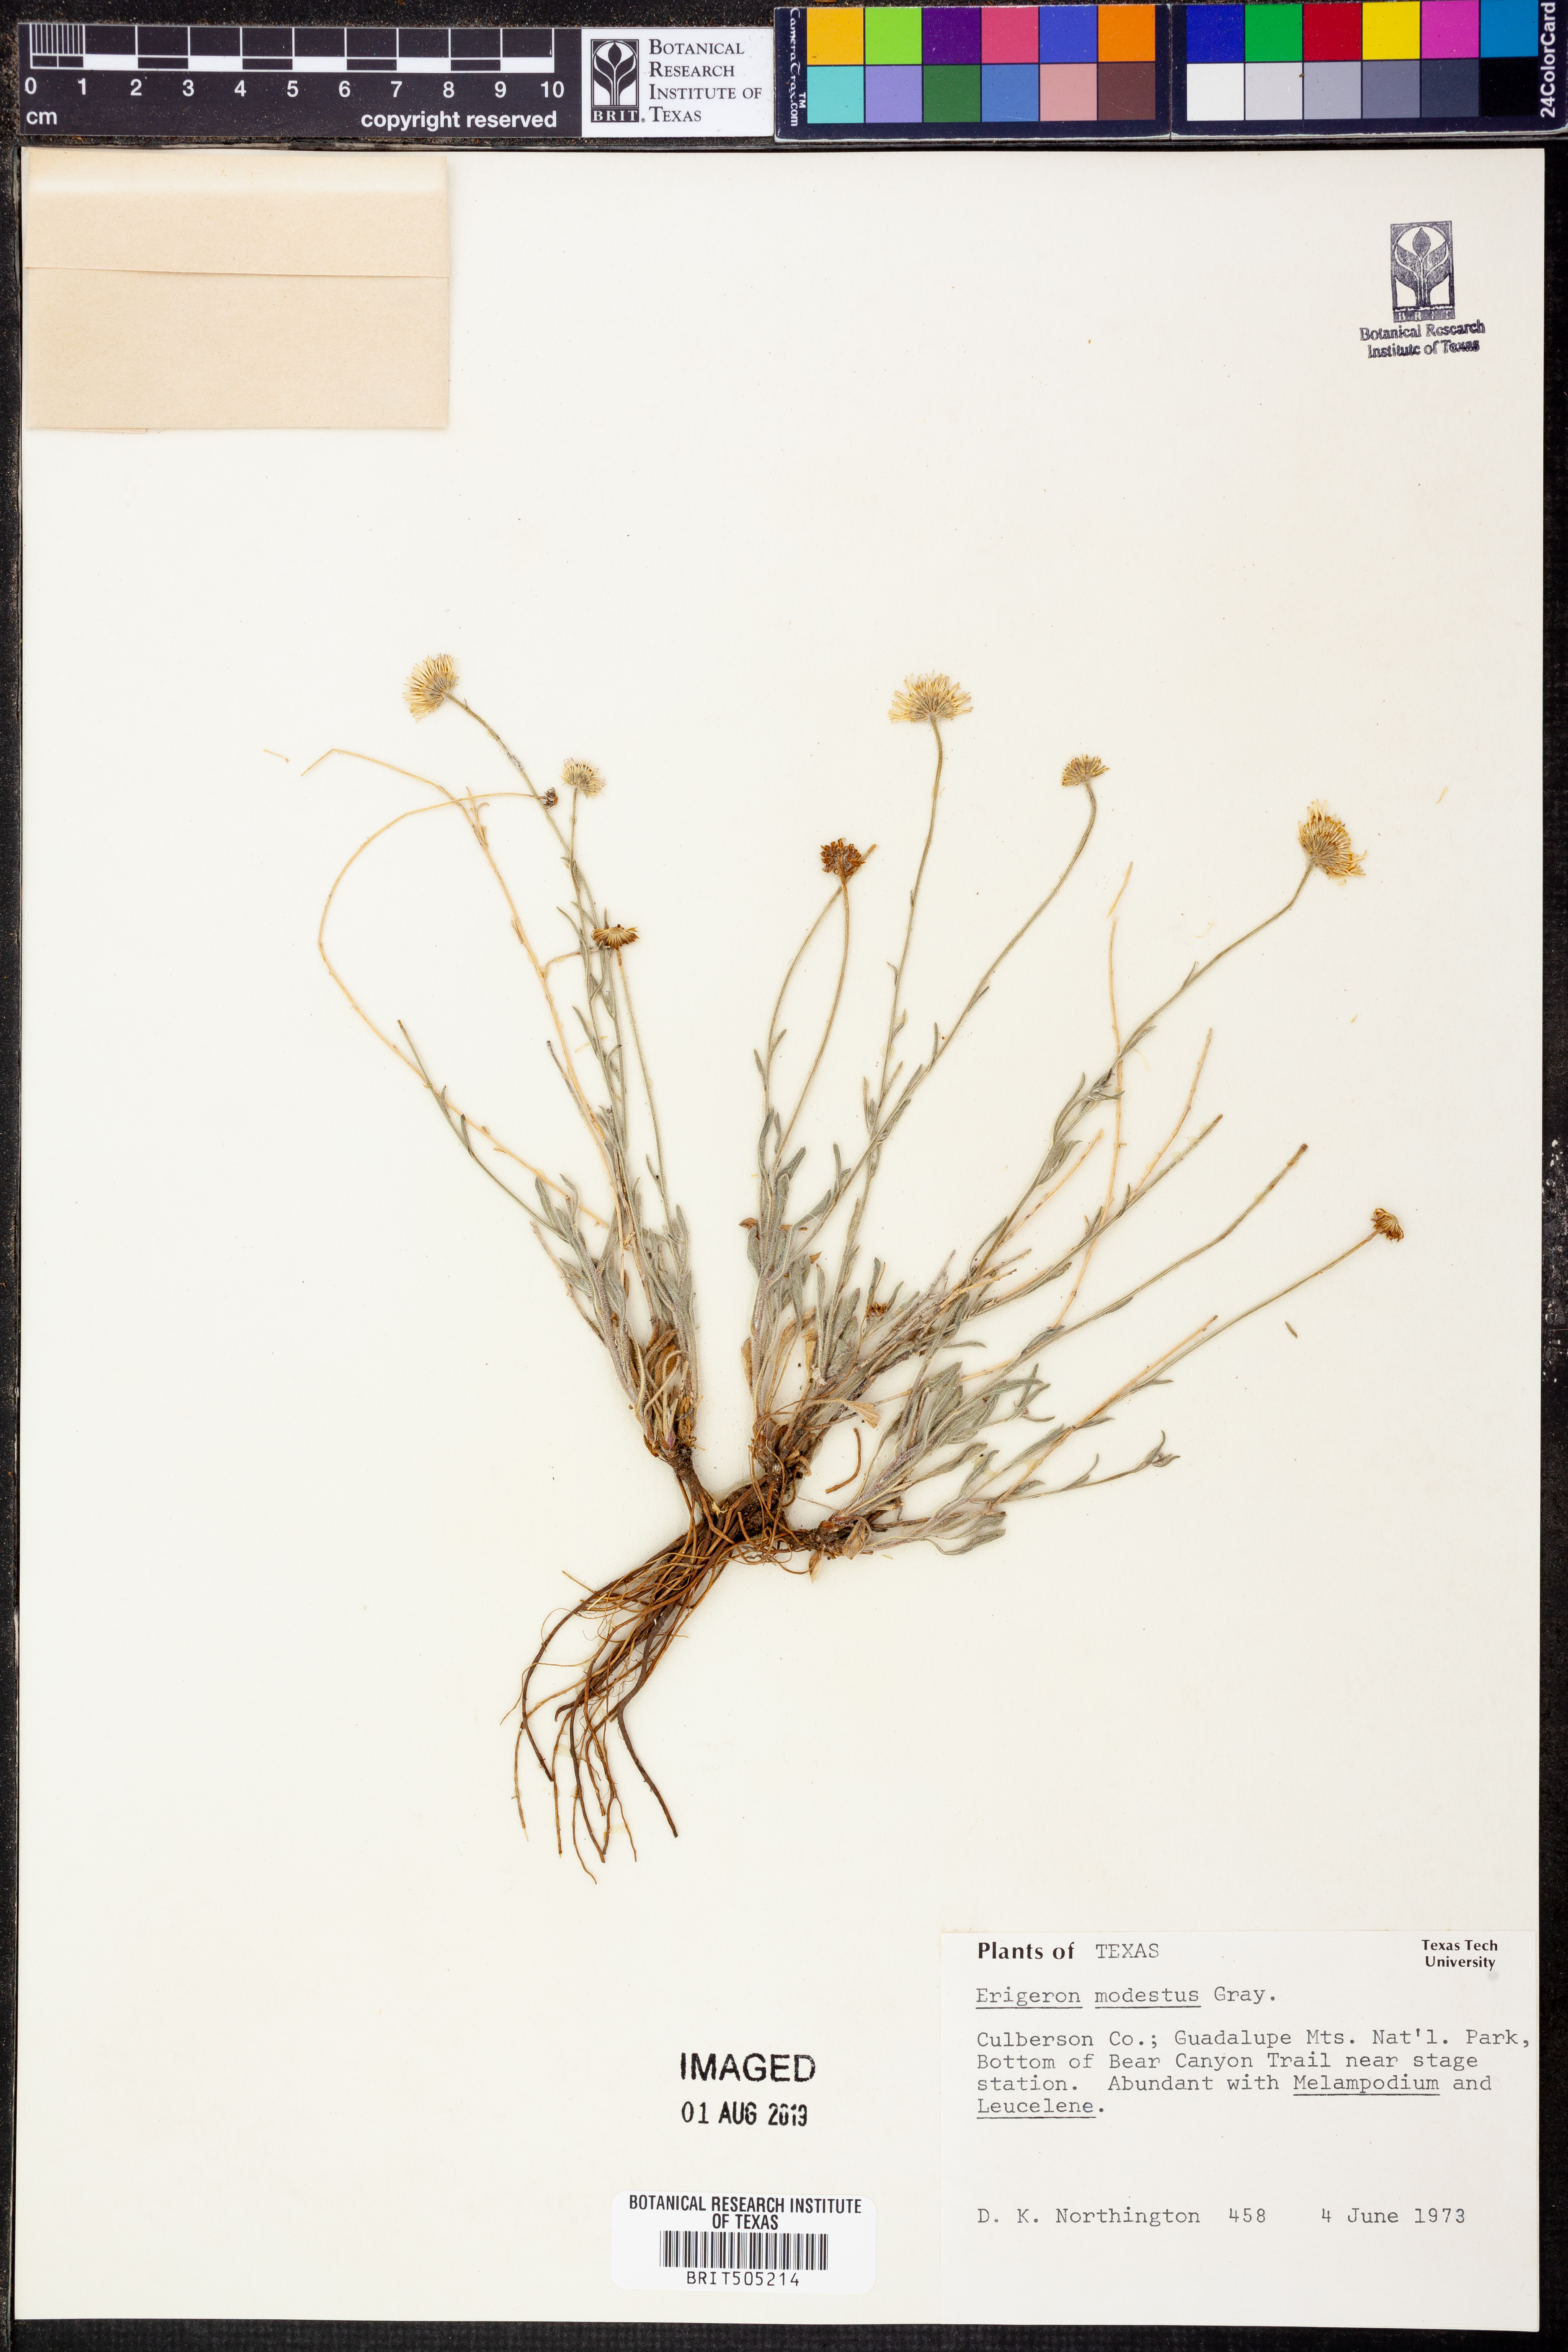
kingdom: Plantae
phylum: Tracheophyta
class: Magnoliopsida
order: Asterales
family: Asteraceae
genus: Erigeron
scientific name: Erigeron modestus
